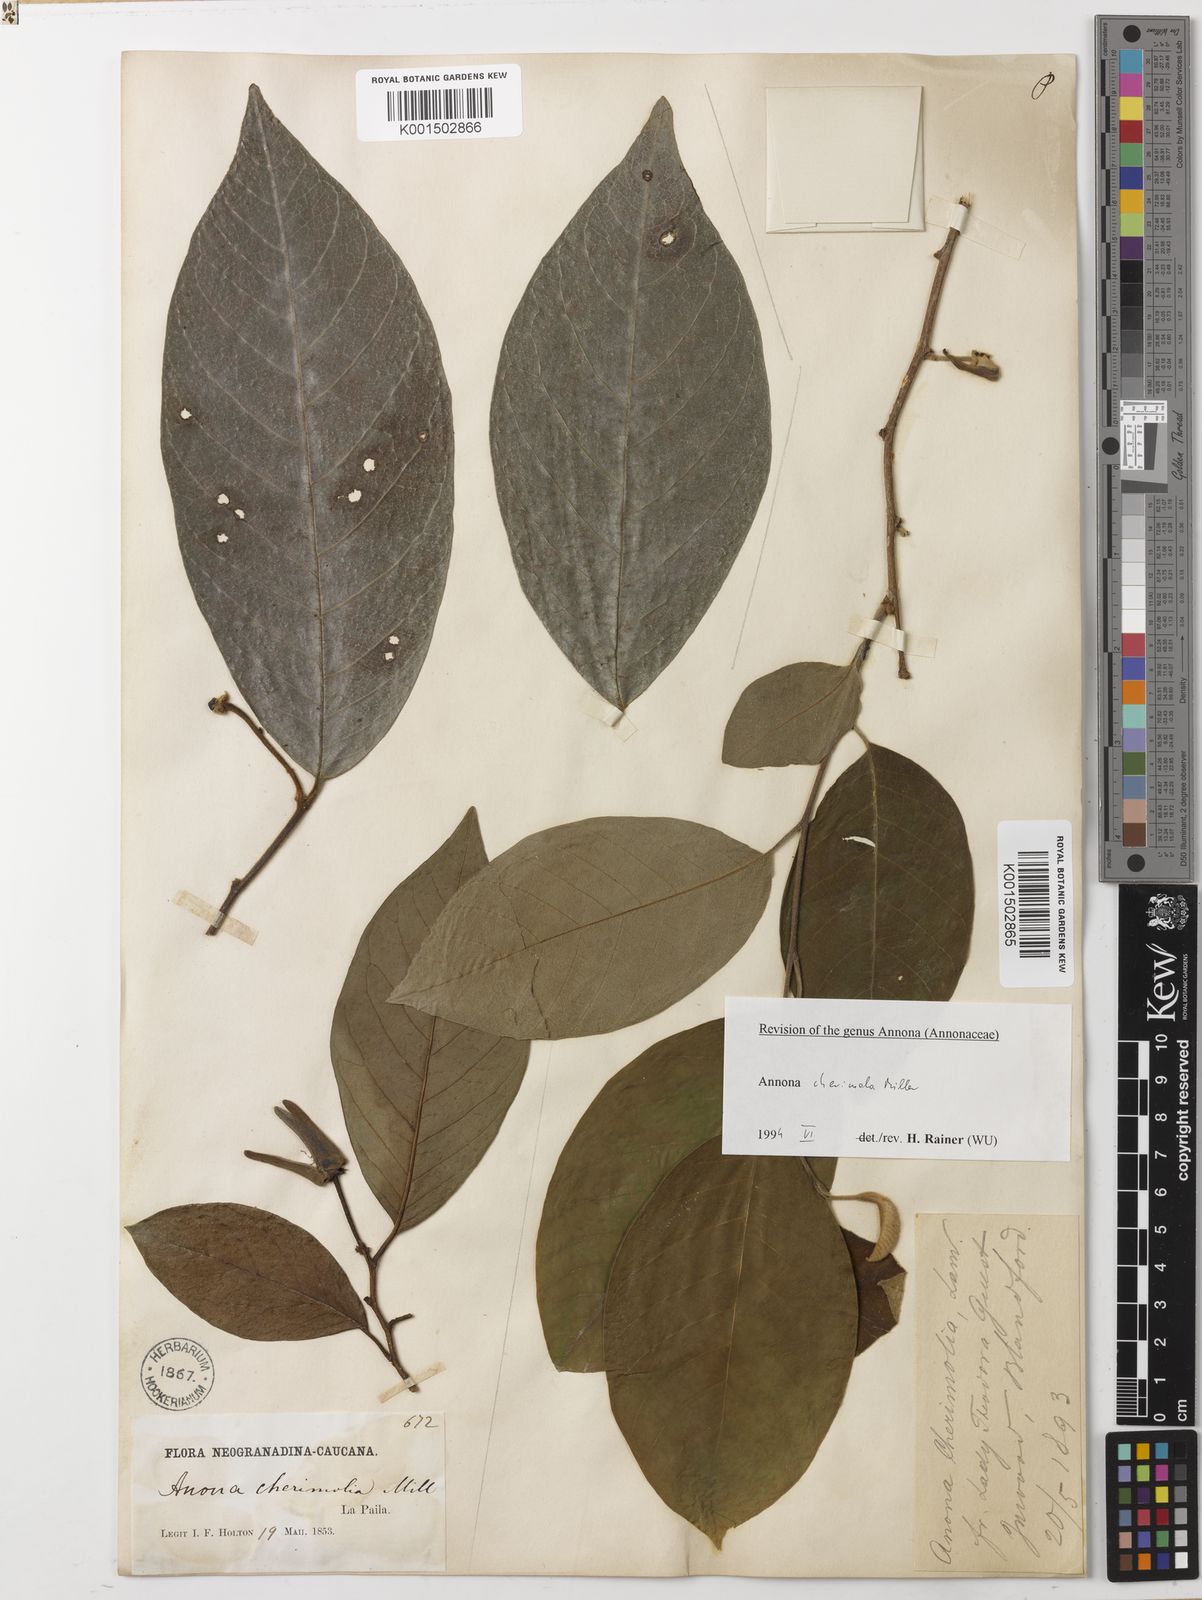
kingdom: Plantae
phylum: Tracheophyta
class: Magnoliopsida
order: Magnoliales
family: Annonaceae
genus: Annona
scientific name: Annona cherimola
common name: Cherimoya
